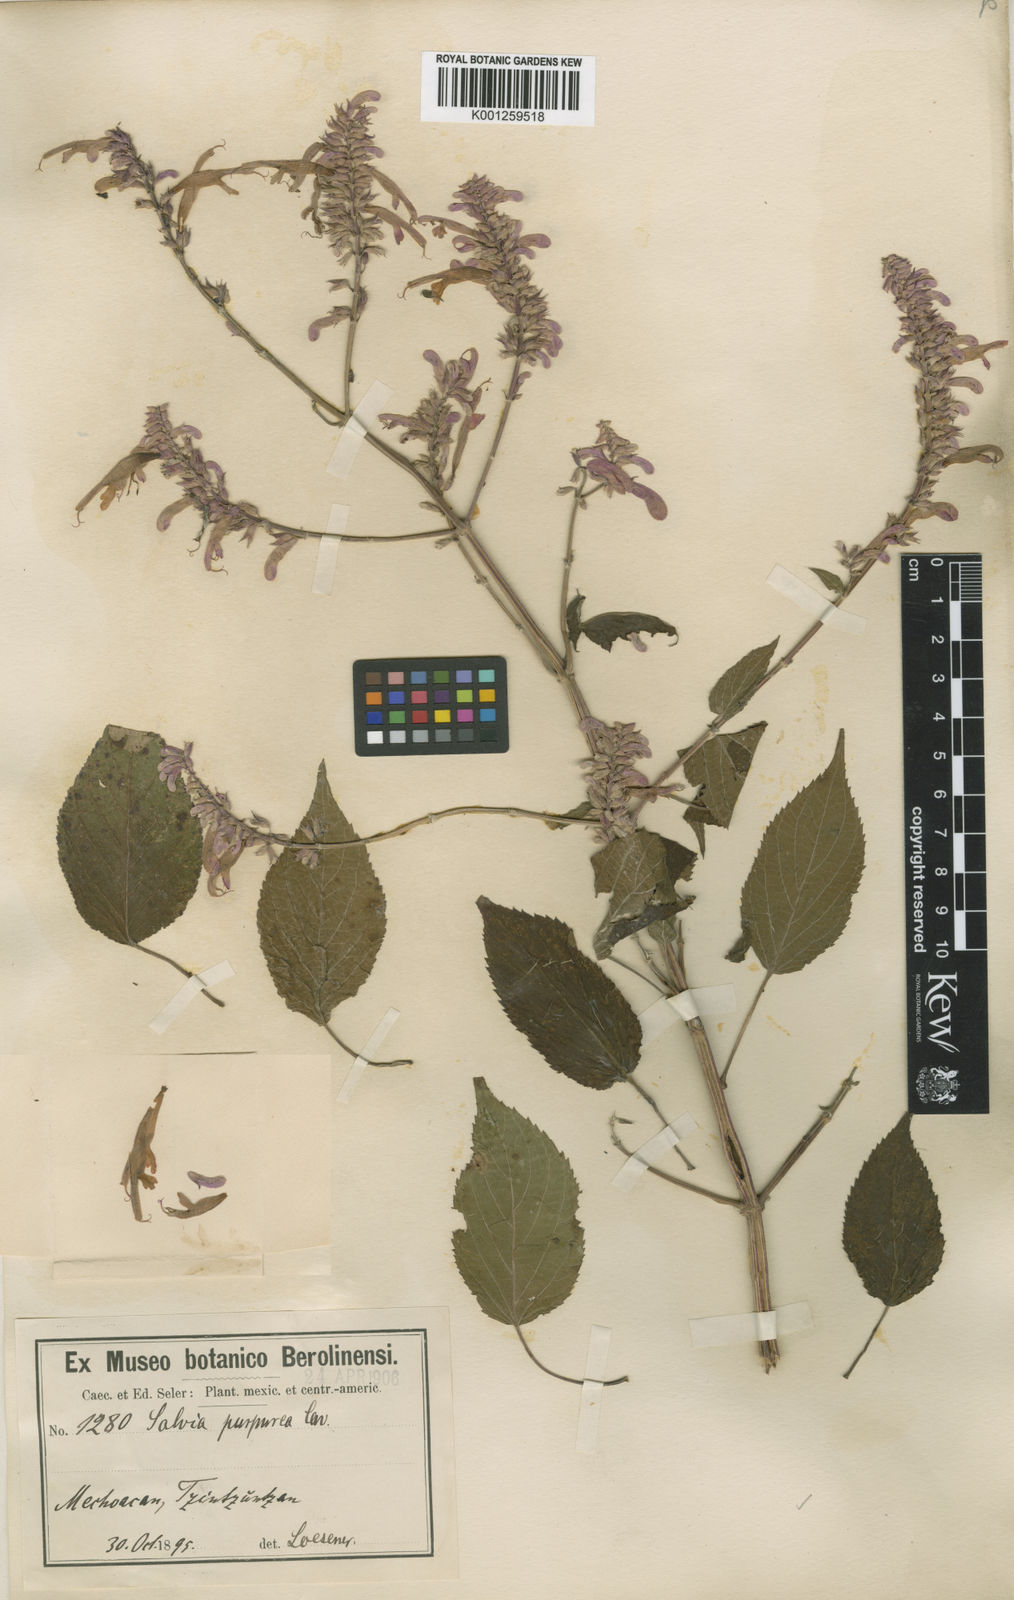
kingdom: Plantae
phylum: Tracheophyta
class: Magnoliopsida
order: Lamiales
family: Lamiaceae
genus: Salvia
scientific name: Salvia
